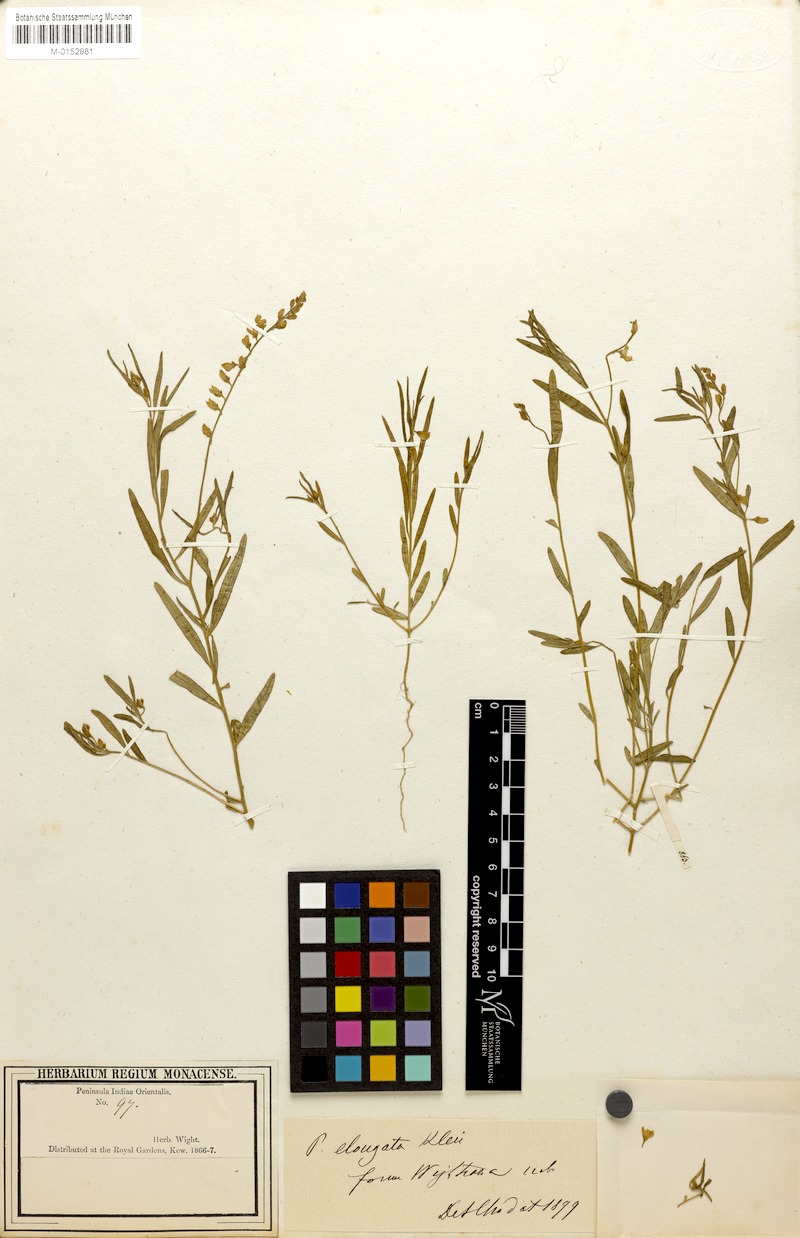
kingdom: Plantae
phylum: Tracheophyta
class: Magnoliopsida
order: Fabales
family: Polygalaceae
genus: Polygala
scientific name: Polygala glaucoides
